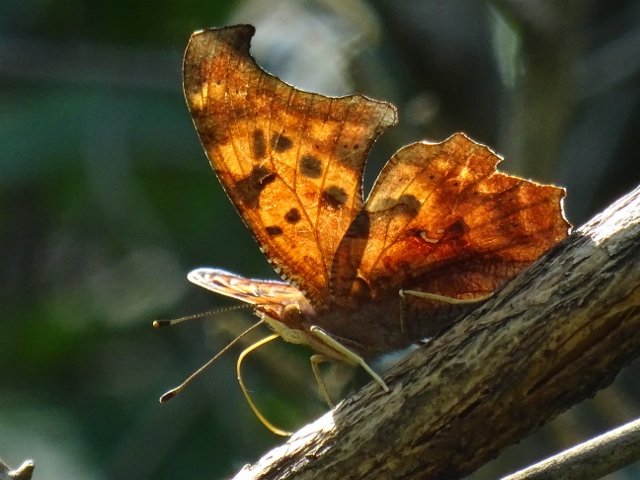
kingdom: Animalia
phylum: Arthropoda
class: Insecta
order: Lepidoptera
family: Nymphalidae
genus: Polygonia
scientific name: Polygonia interrogationis
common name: Question Mark
